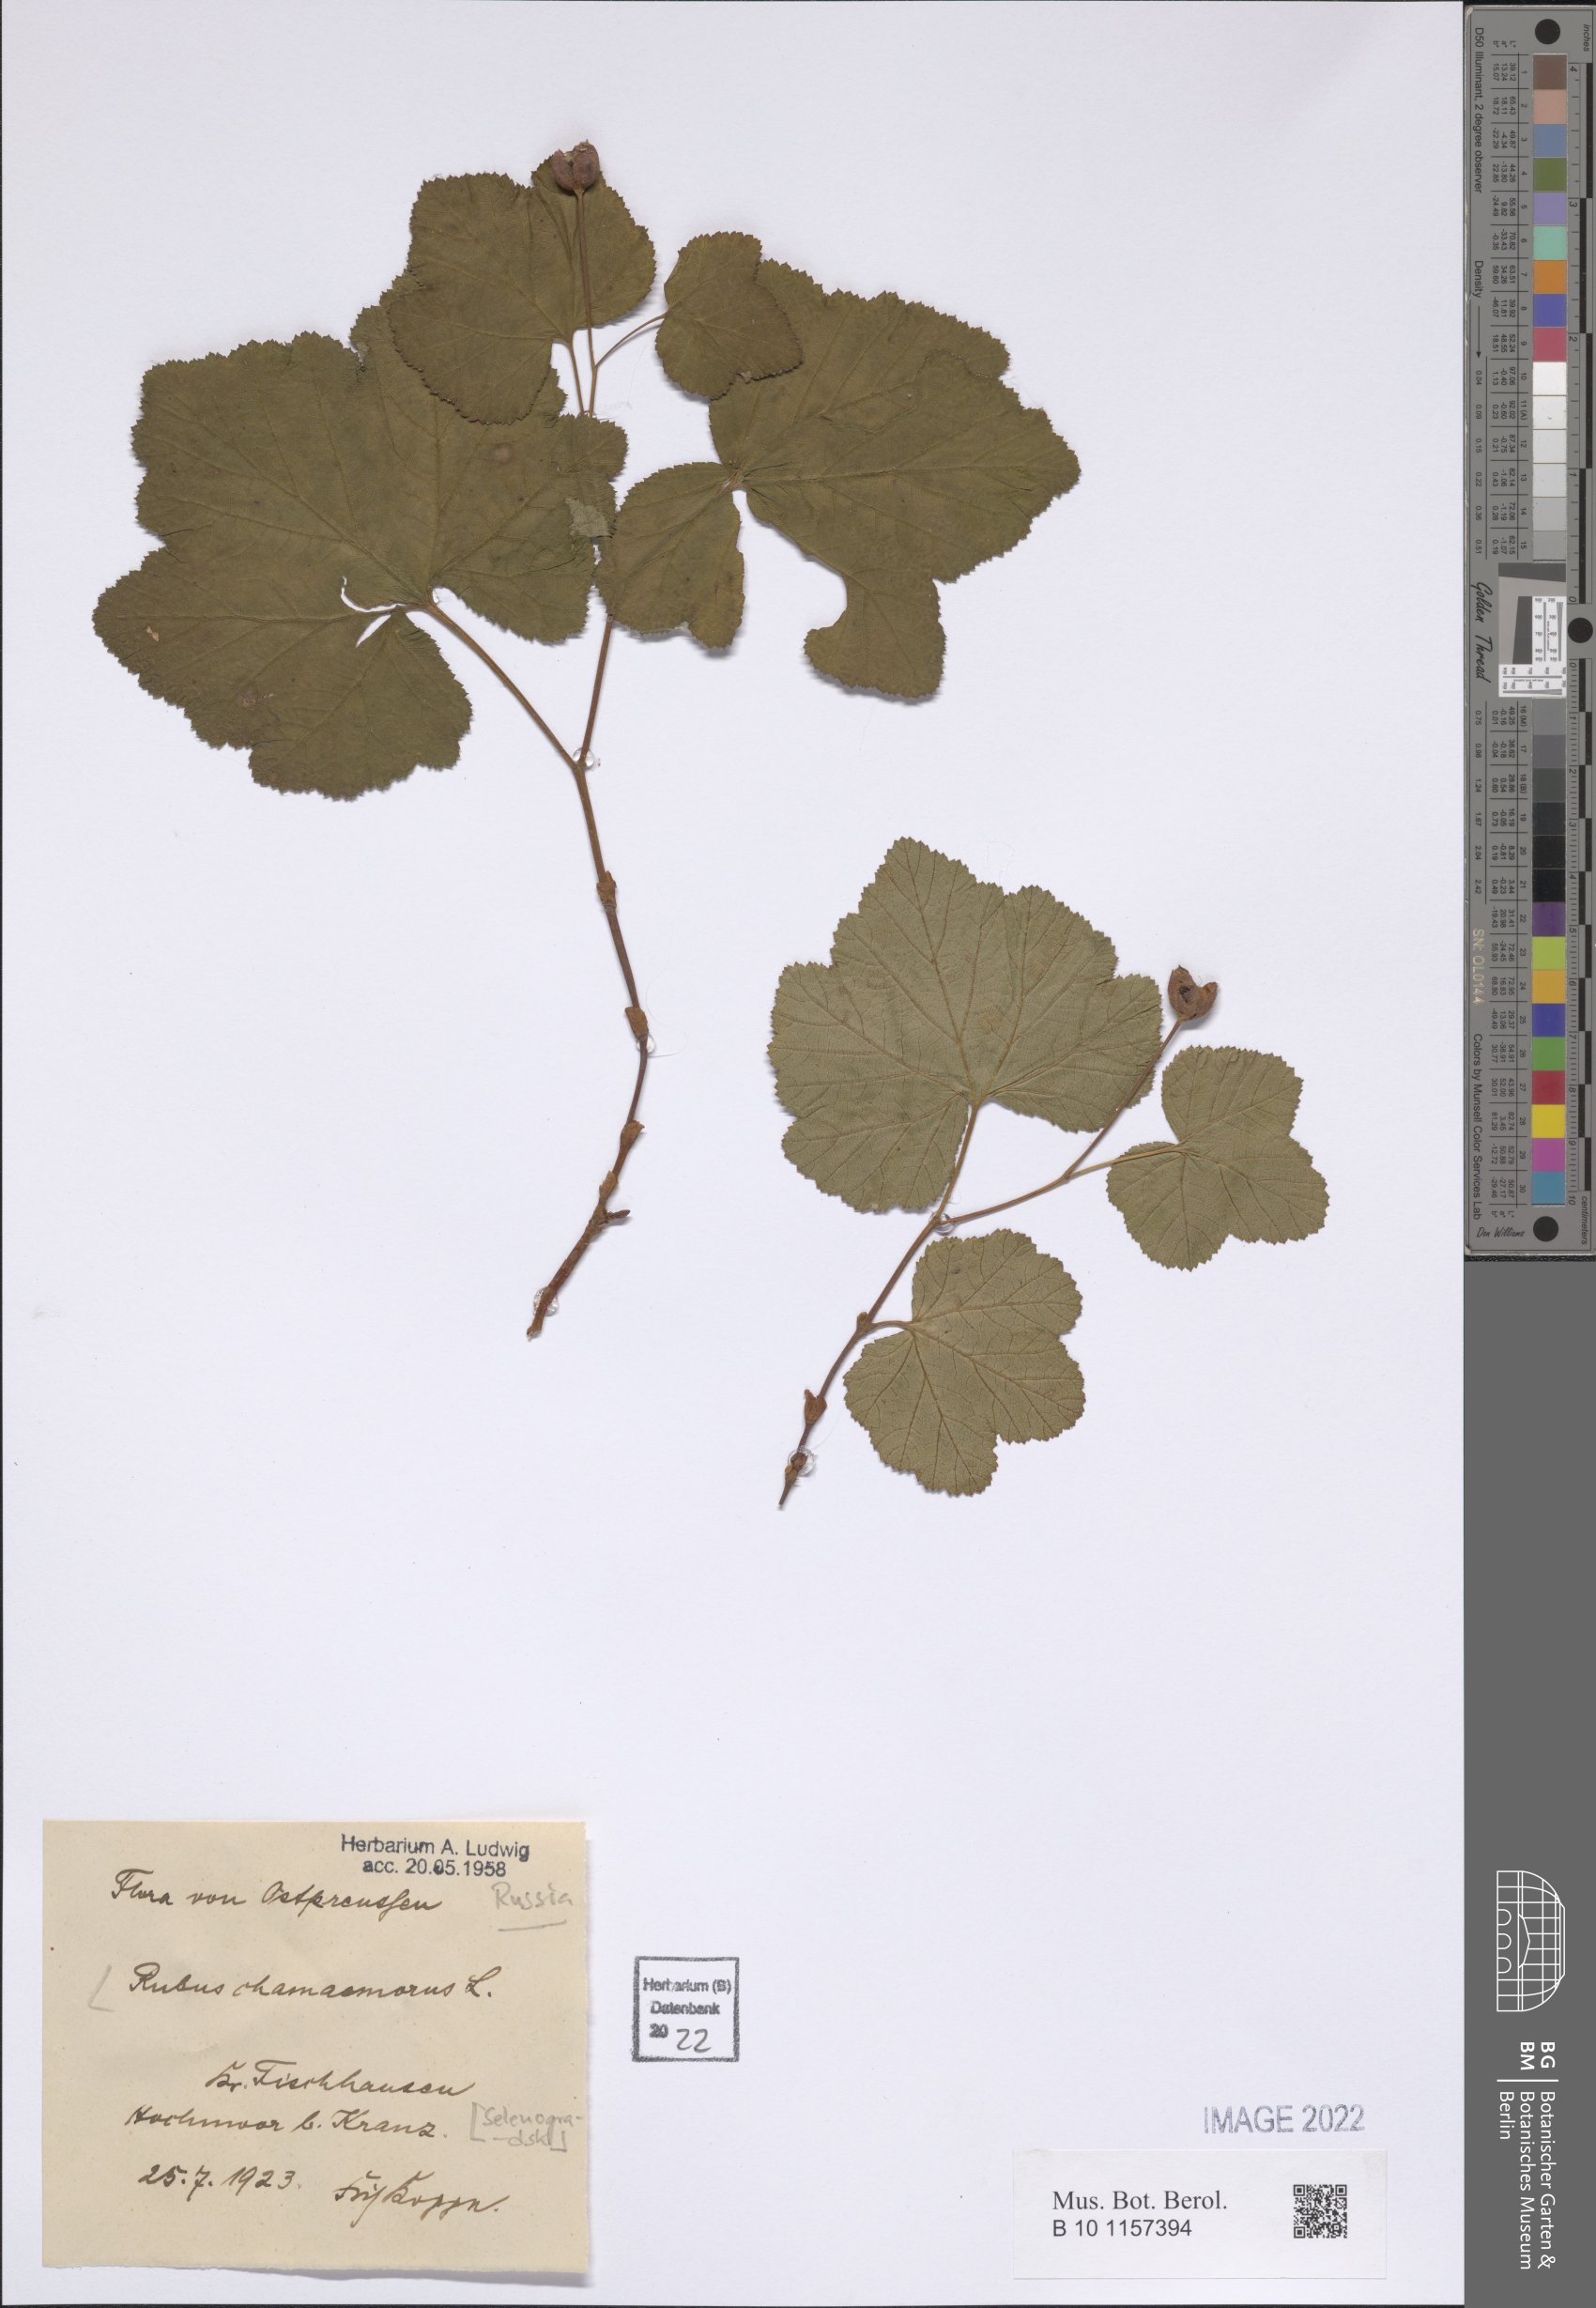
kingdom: Plantae
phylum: Tracheophyta
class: Magnoliopsida
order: Rosales
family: Rosaceae
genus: Rubus
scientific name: Rubus chamaemorus
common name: Cloudberry
